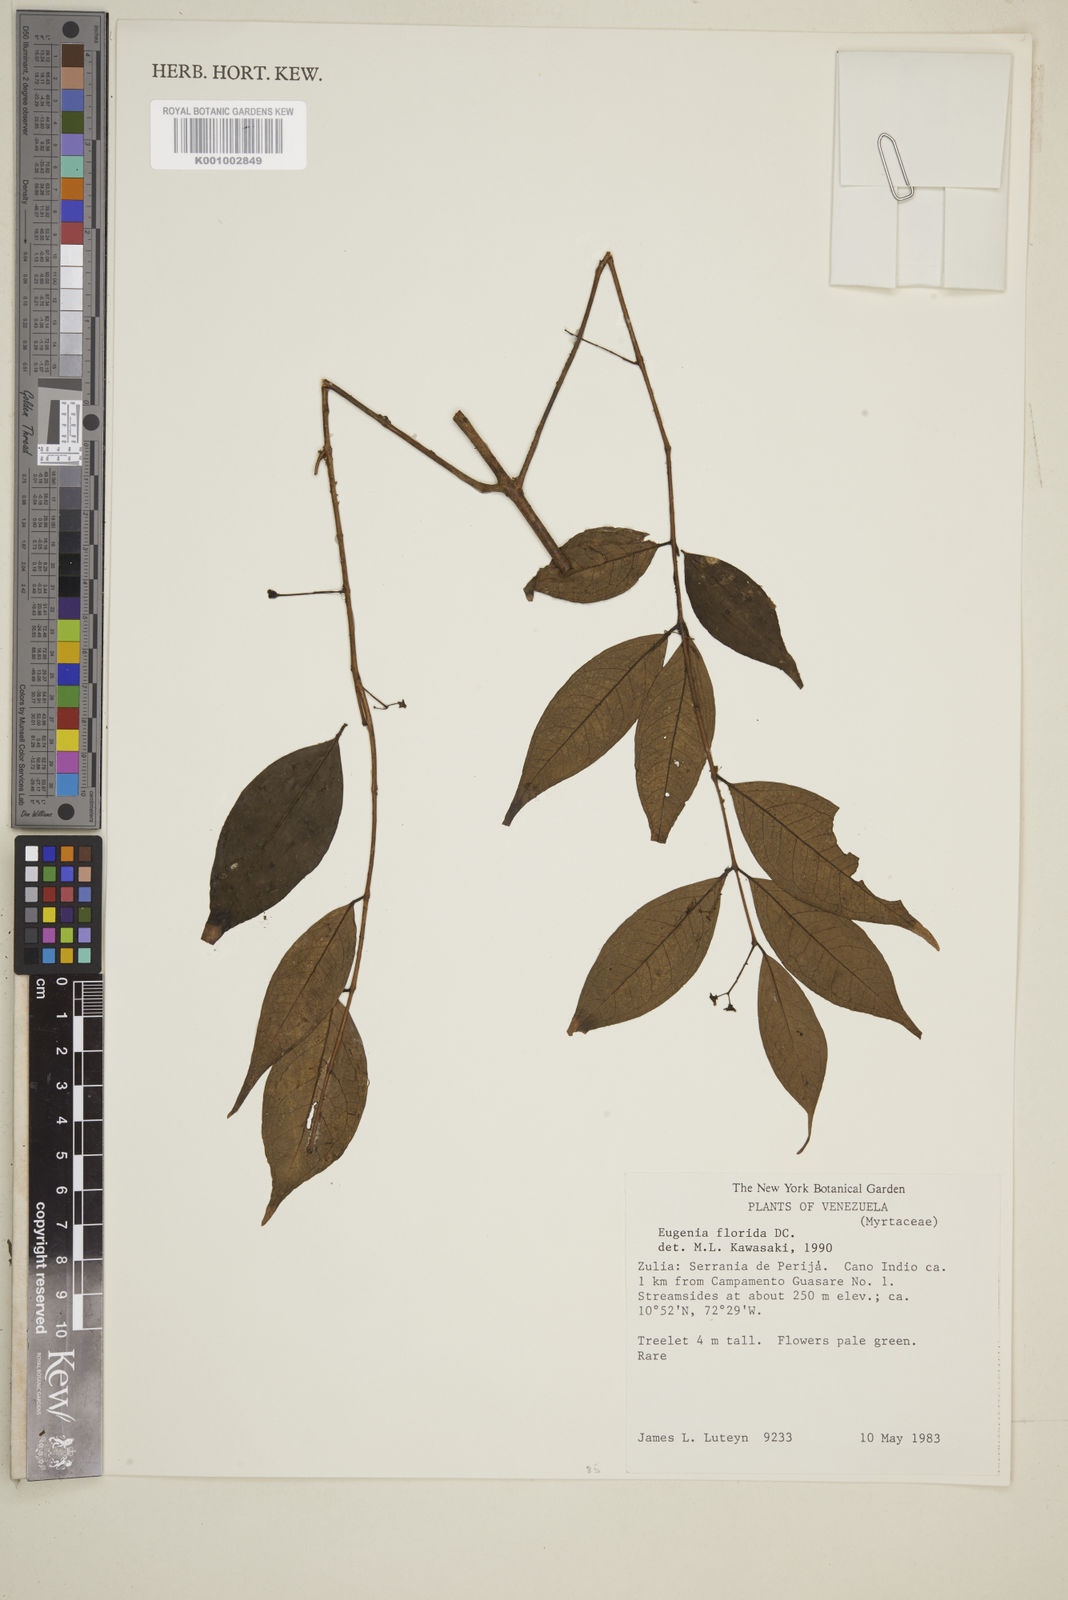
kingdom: Plantae
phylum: Tracheophyta
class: Magnoliopsida
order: Myrtales
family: Myrtaceae
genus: Eugenia
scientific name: Eugenia florida
